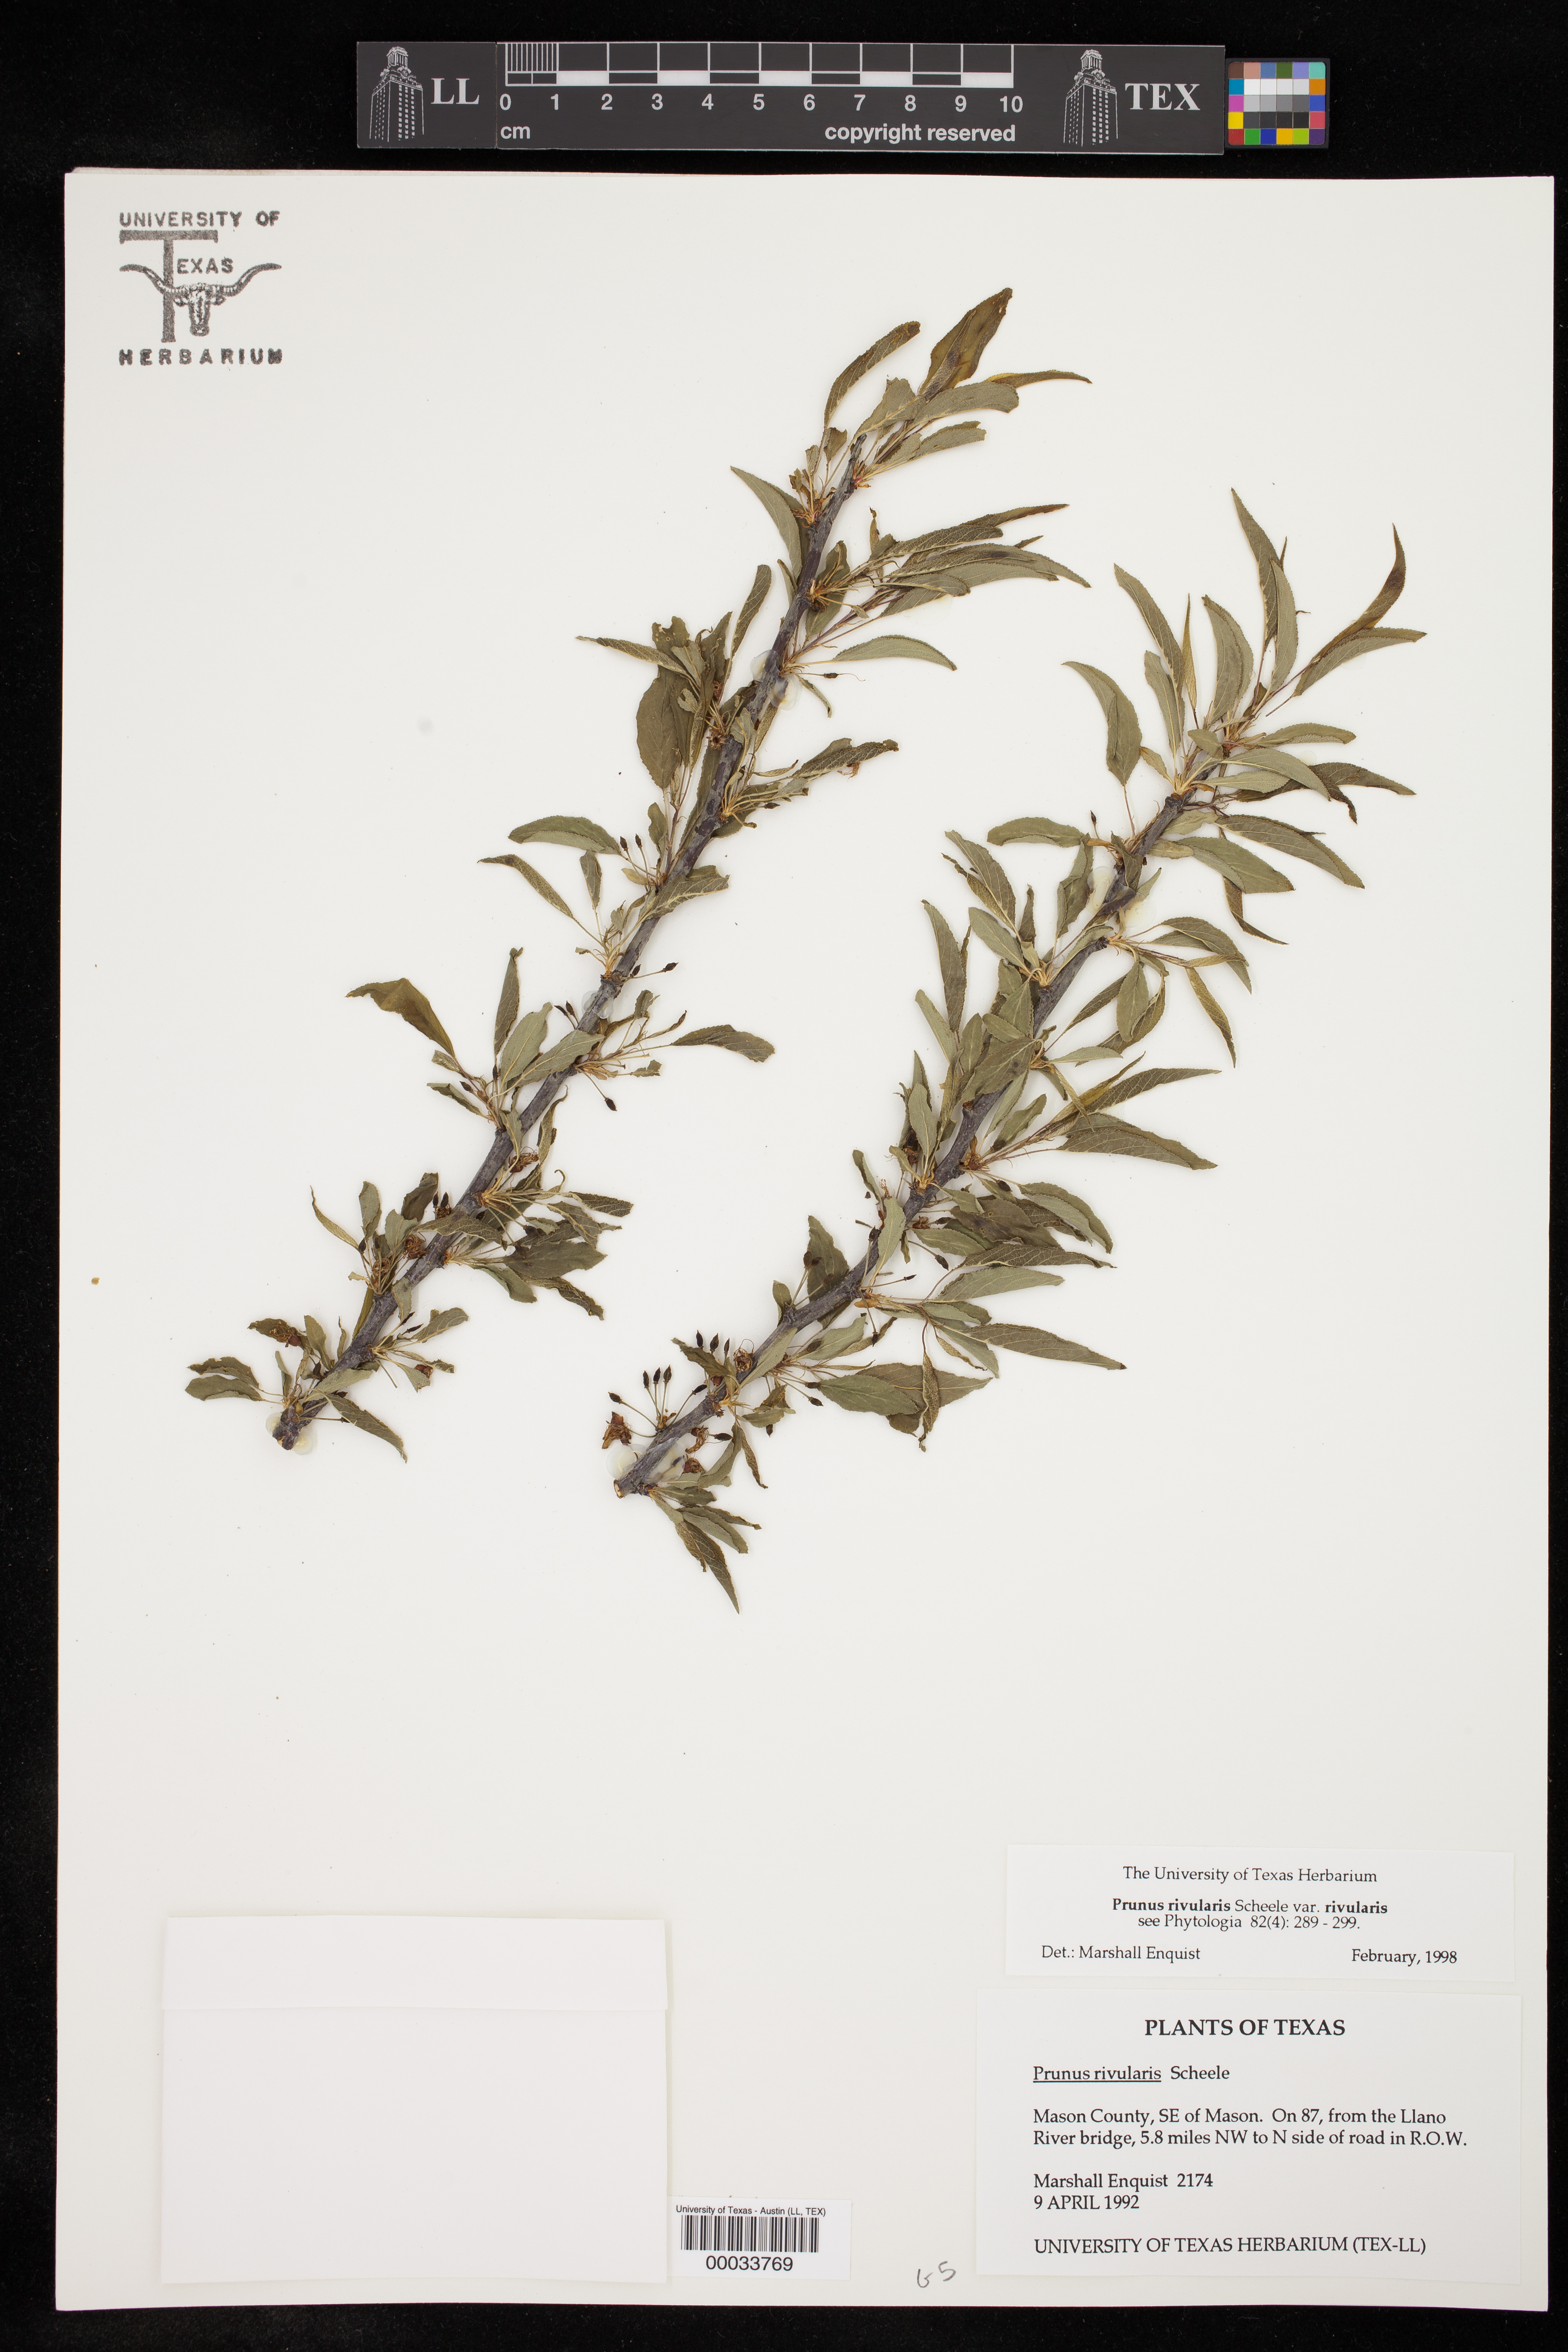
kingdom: Plantae
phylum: Tracheophyta
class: Magnoliopsida
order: Rosales
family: Rosaceae
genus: Prunus
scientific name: Prunus rivularis
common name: Creek plum
